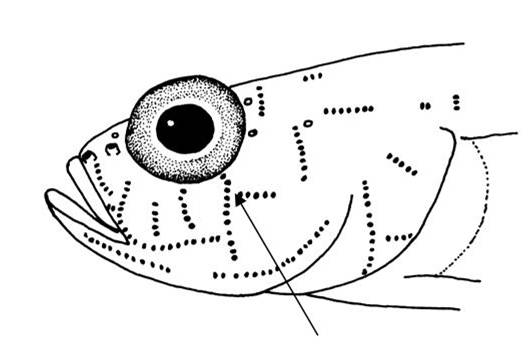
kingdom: Animalia
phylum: Chordata
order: Perciformes
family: Gobiidae
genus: Hetereleotris
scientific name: Hetereleotris margaretae
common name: Smooth-scale goby
